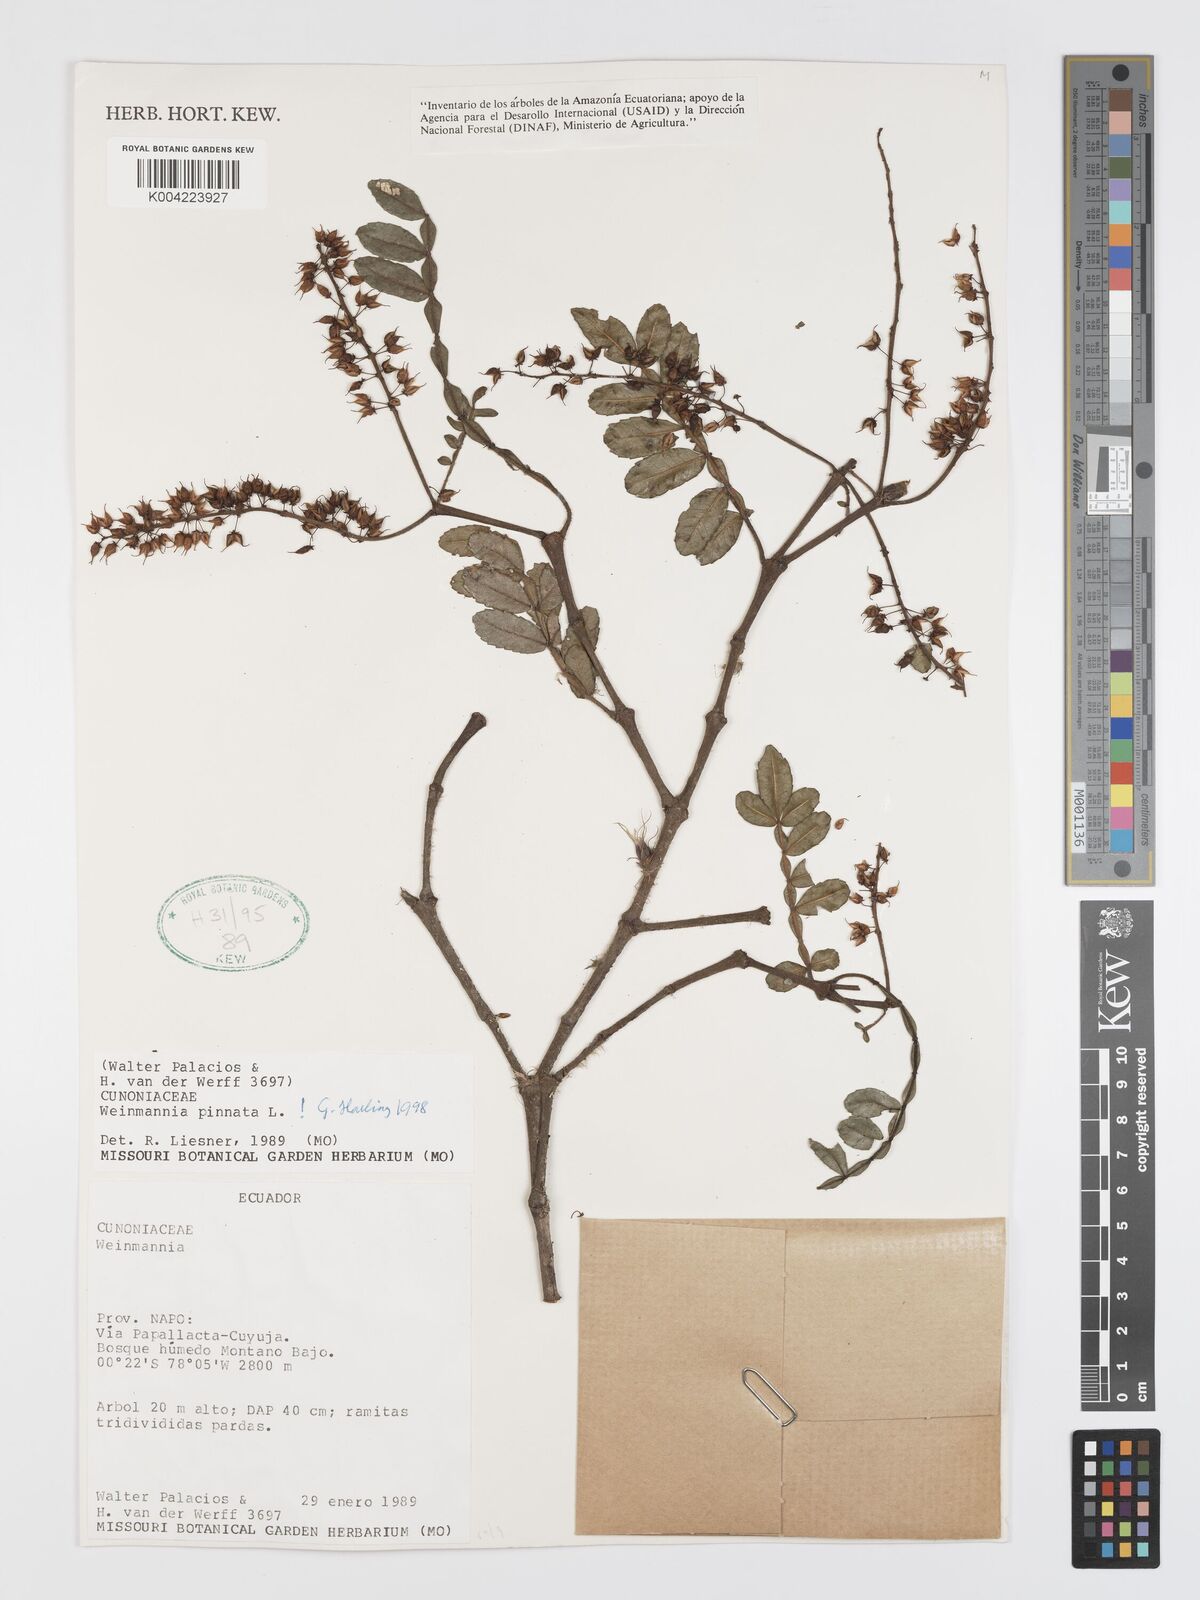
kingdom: Plantae
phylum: Tracheophyta
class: Magnoliopsida
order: Oxalidales
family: Cunoniaceae
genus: Weinmannia
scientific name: Weinmannia pinnata
